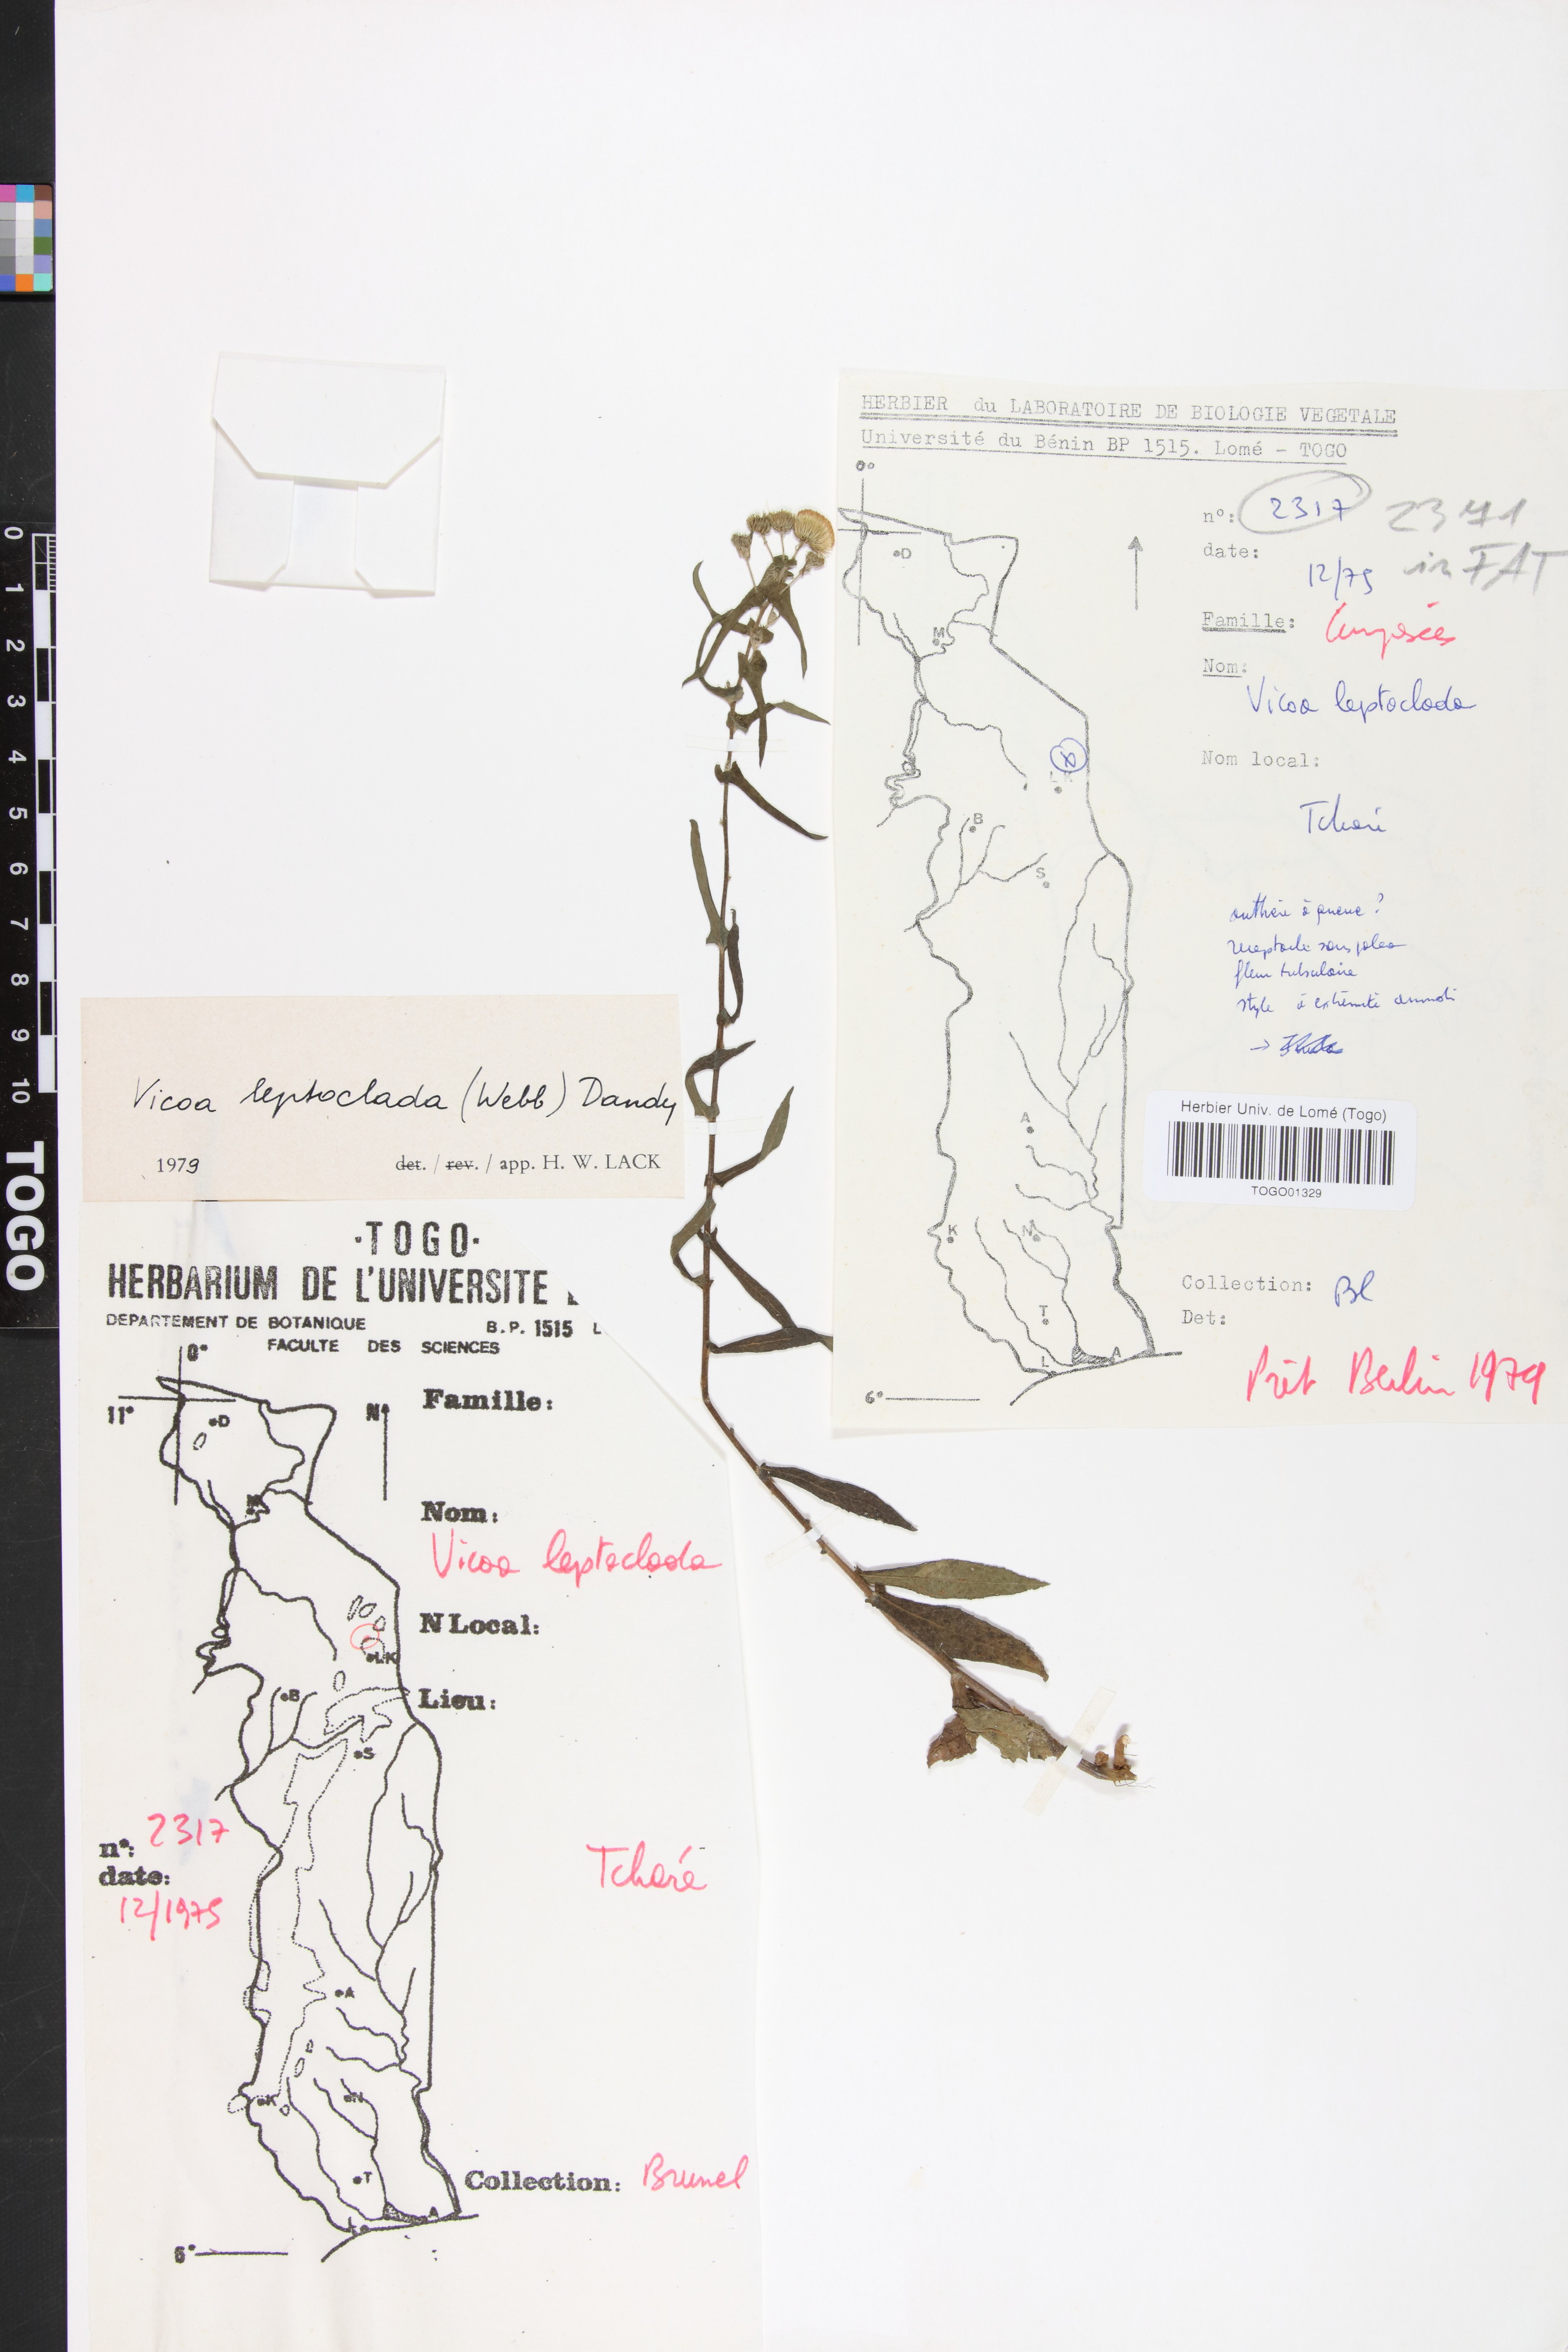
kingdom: Plantae
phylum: Tracheophyta
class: Magnoliopsida
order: Asterales
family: Asteraceae
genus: Vicoa
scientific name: Vicoa indica
